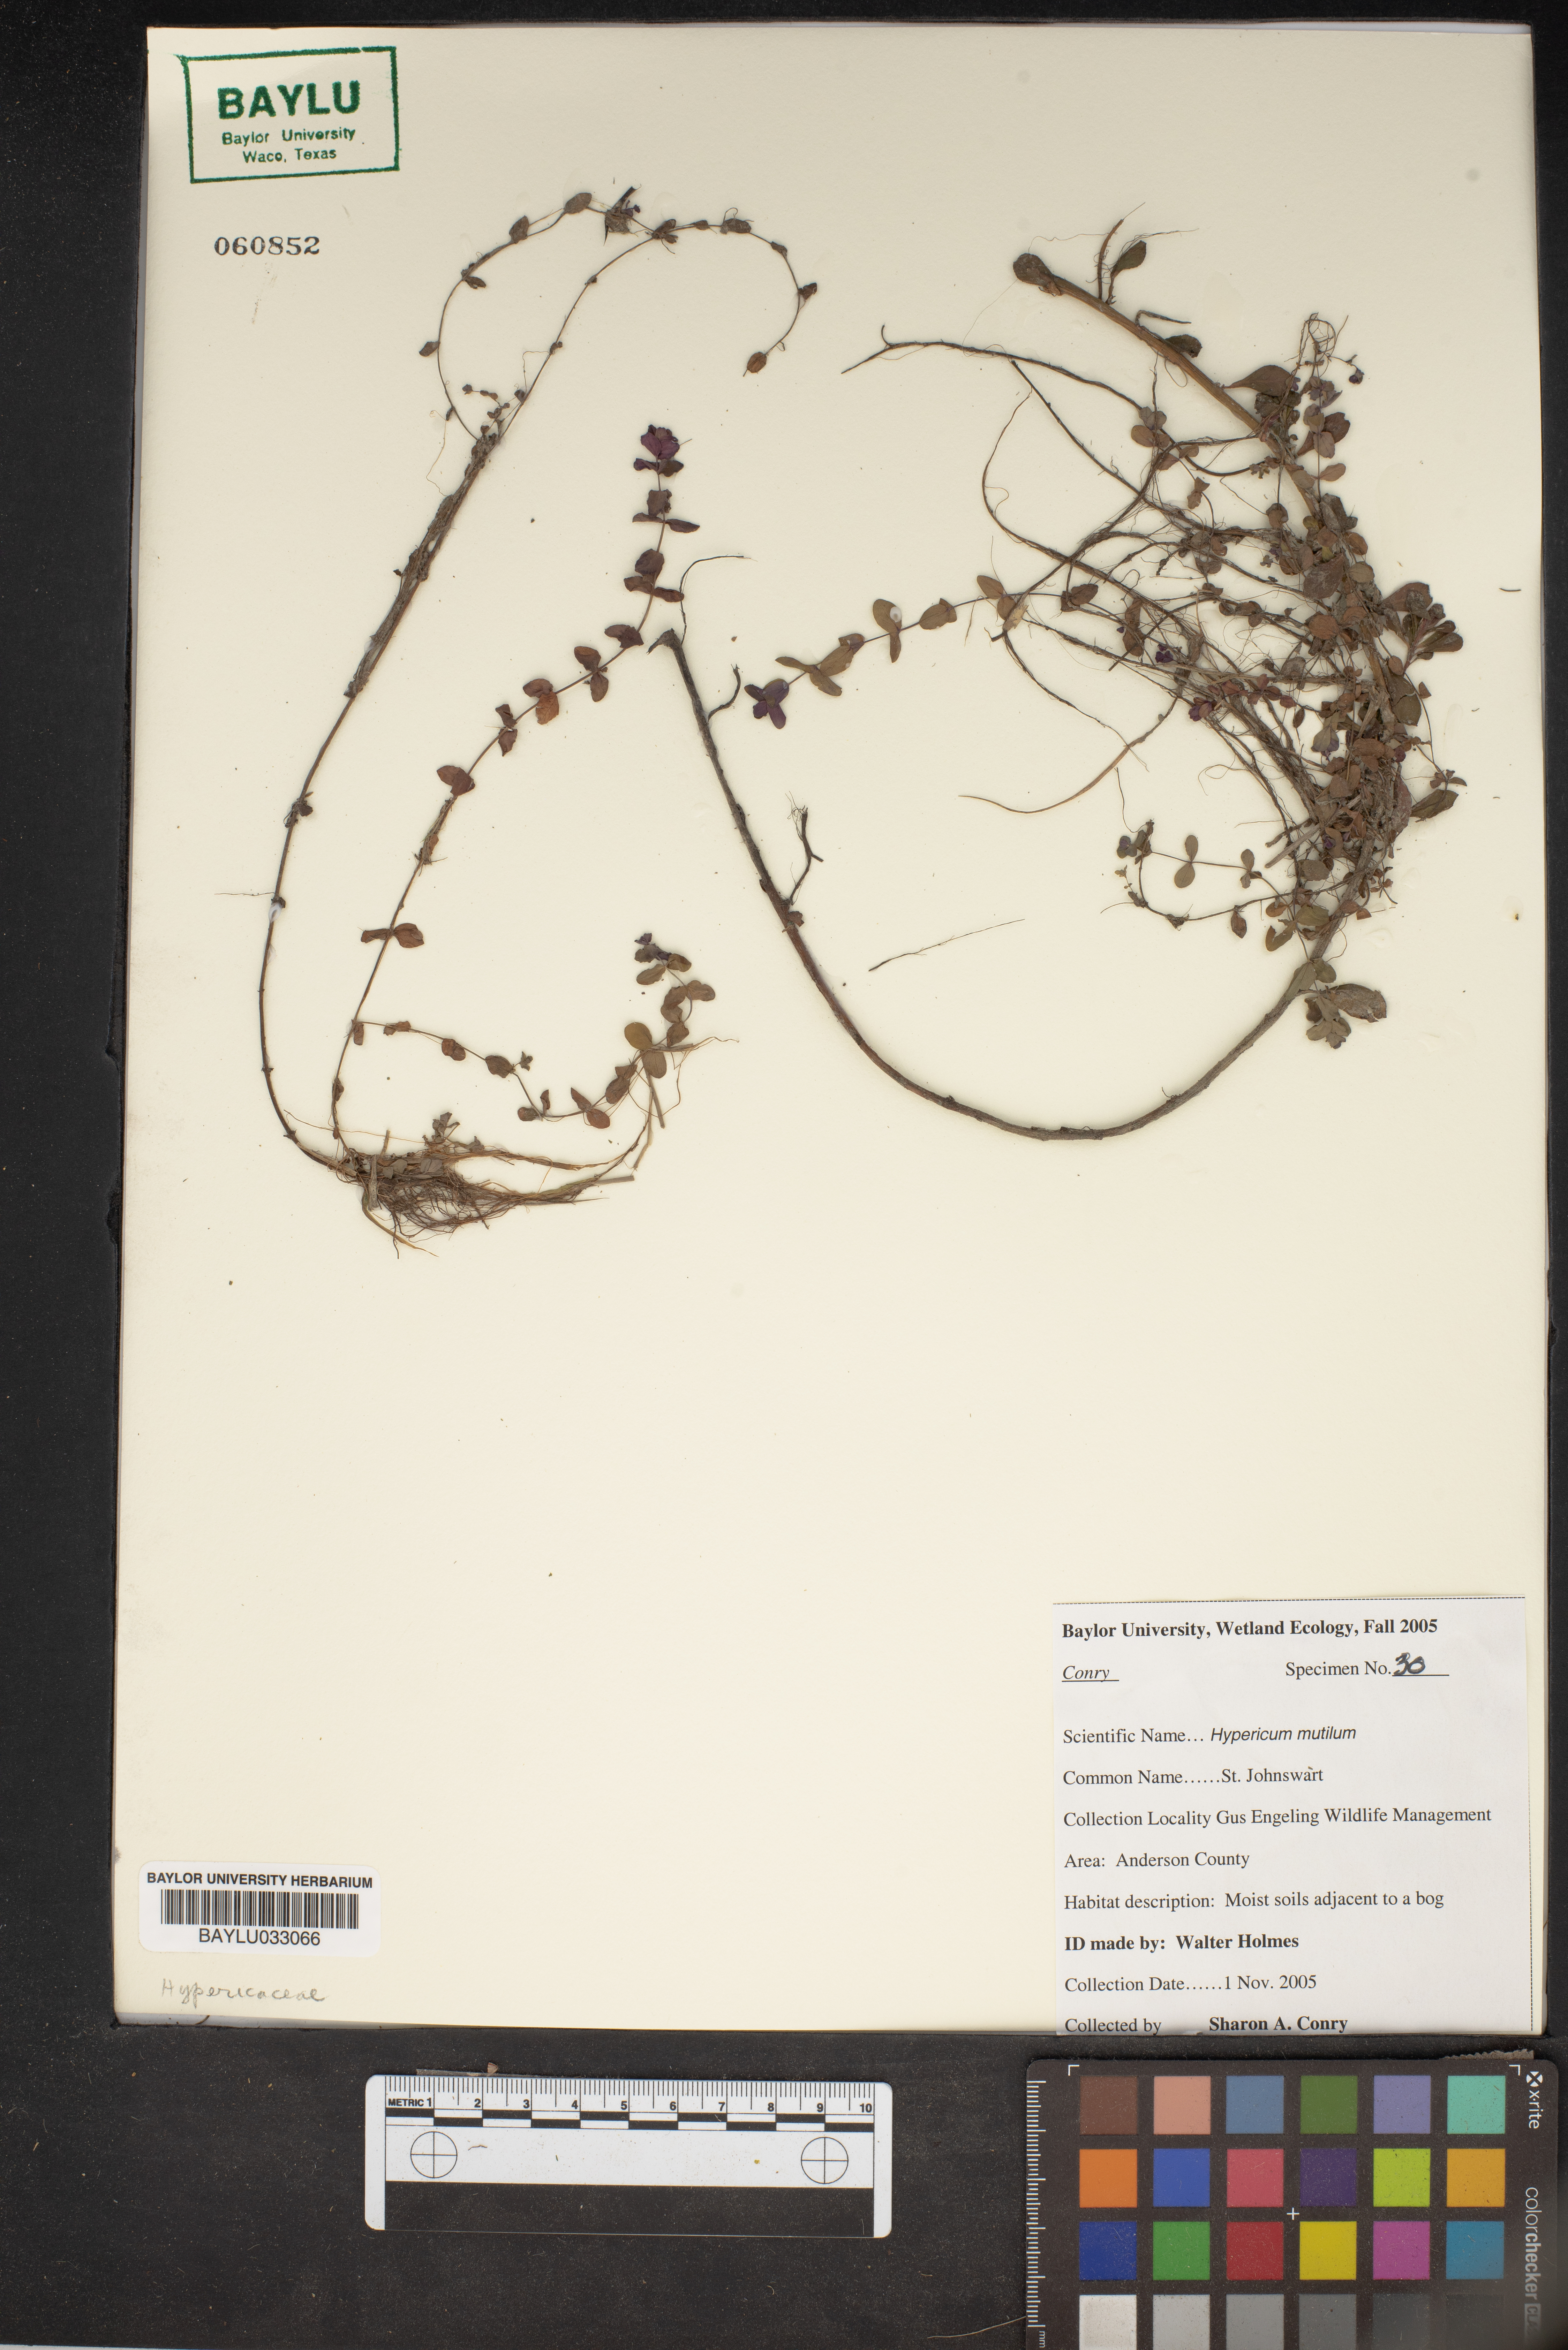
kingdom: Plantae
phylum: Tracheophyta
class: Magnoliopsida
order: Malpighiales
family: Hypericaceae
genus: Hypericum
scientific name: Hypericum mutilum
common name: Dwarf st. john's-wort
